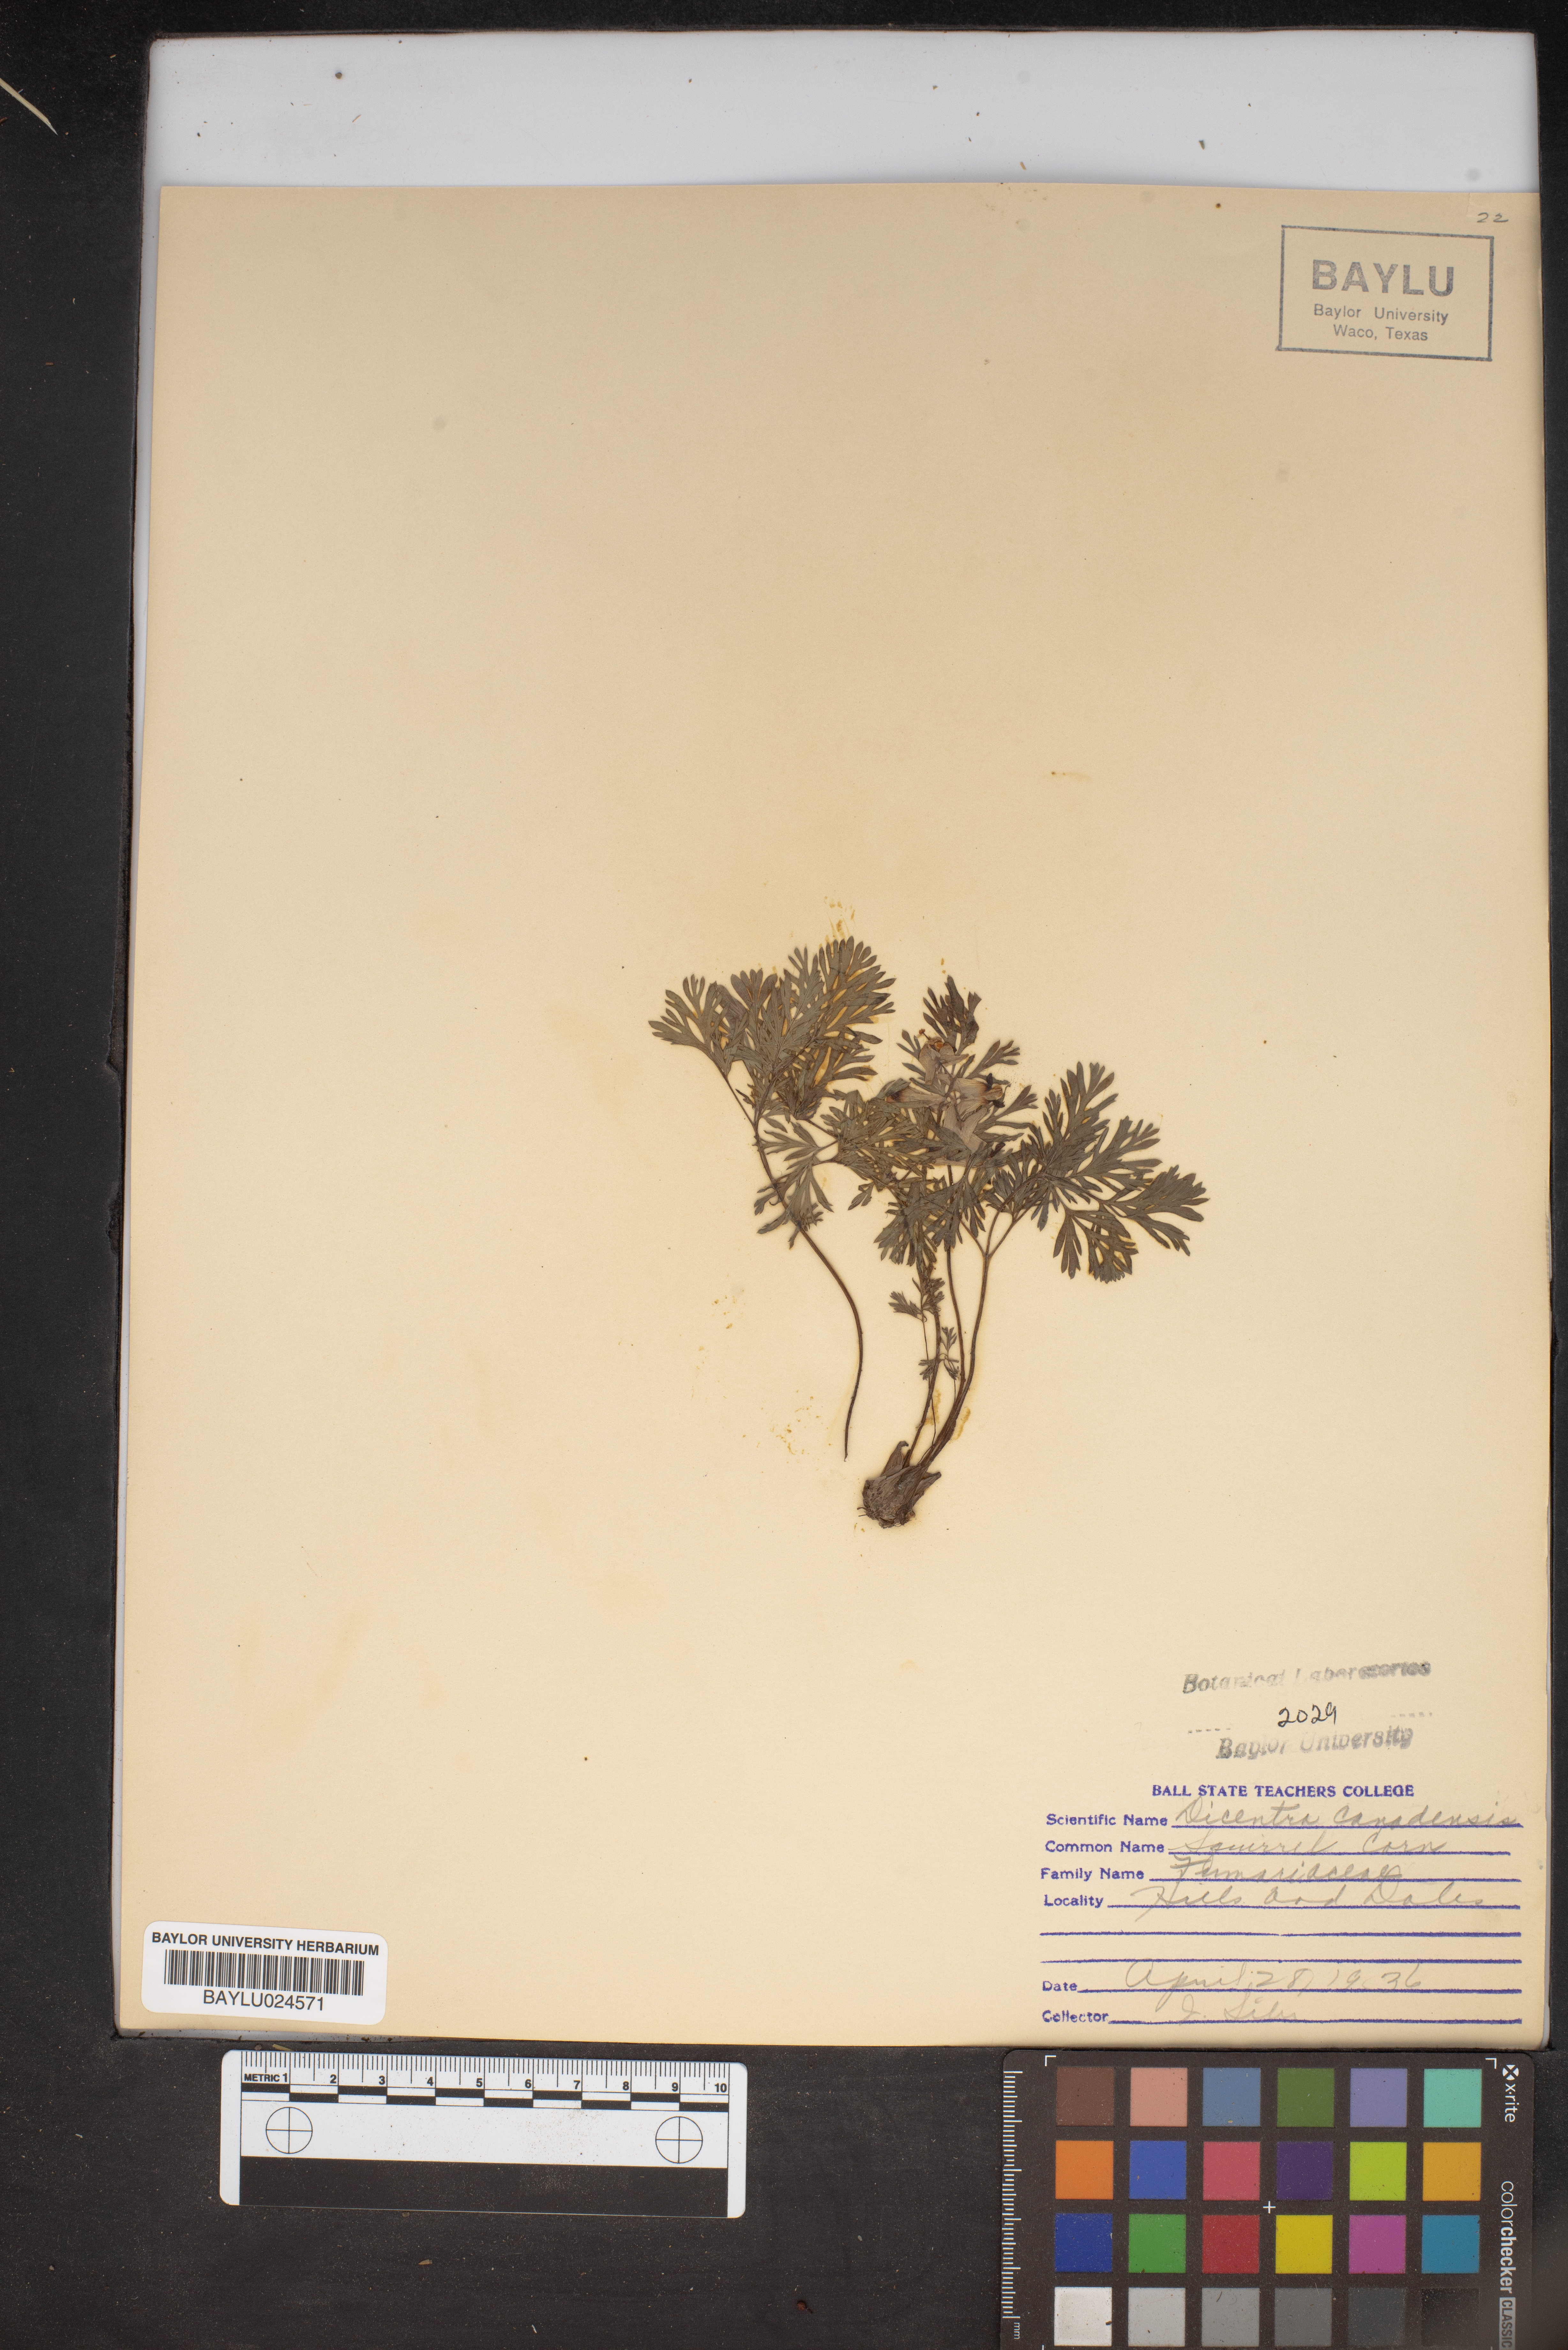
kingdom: Plantae
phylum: Tracheophyta
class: Magnoliopsida
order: Ranunculales
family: Papaveraceae
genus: Dicentra
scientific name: Dicentra canadensis
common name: Squirrel-corn
